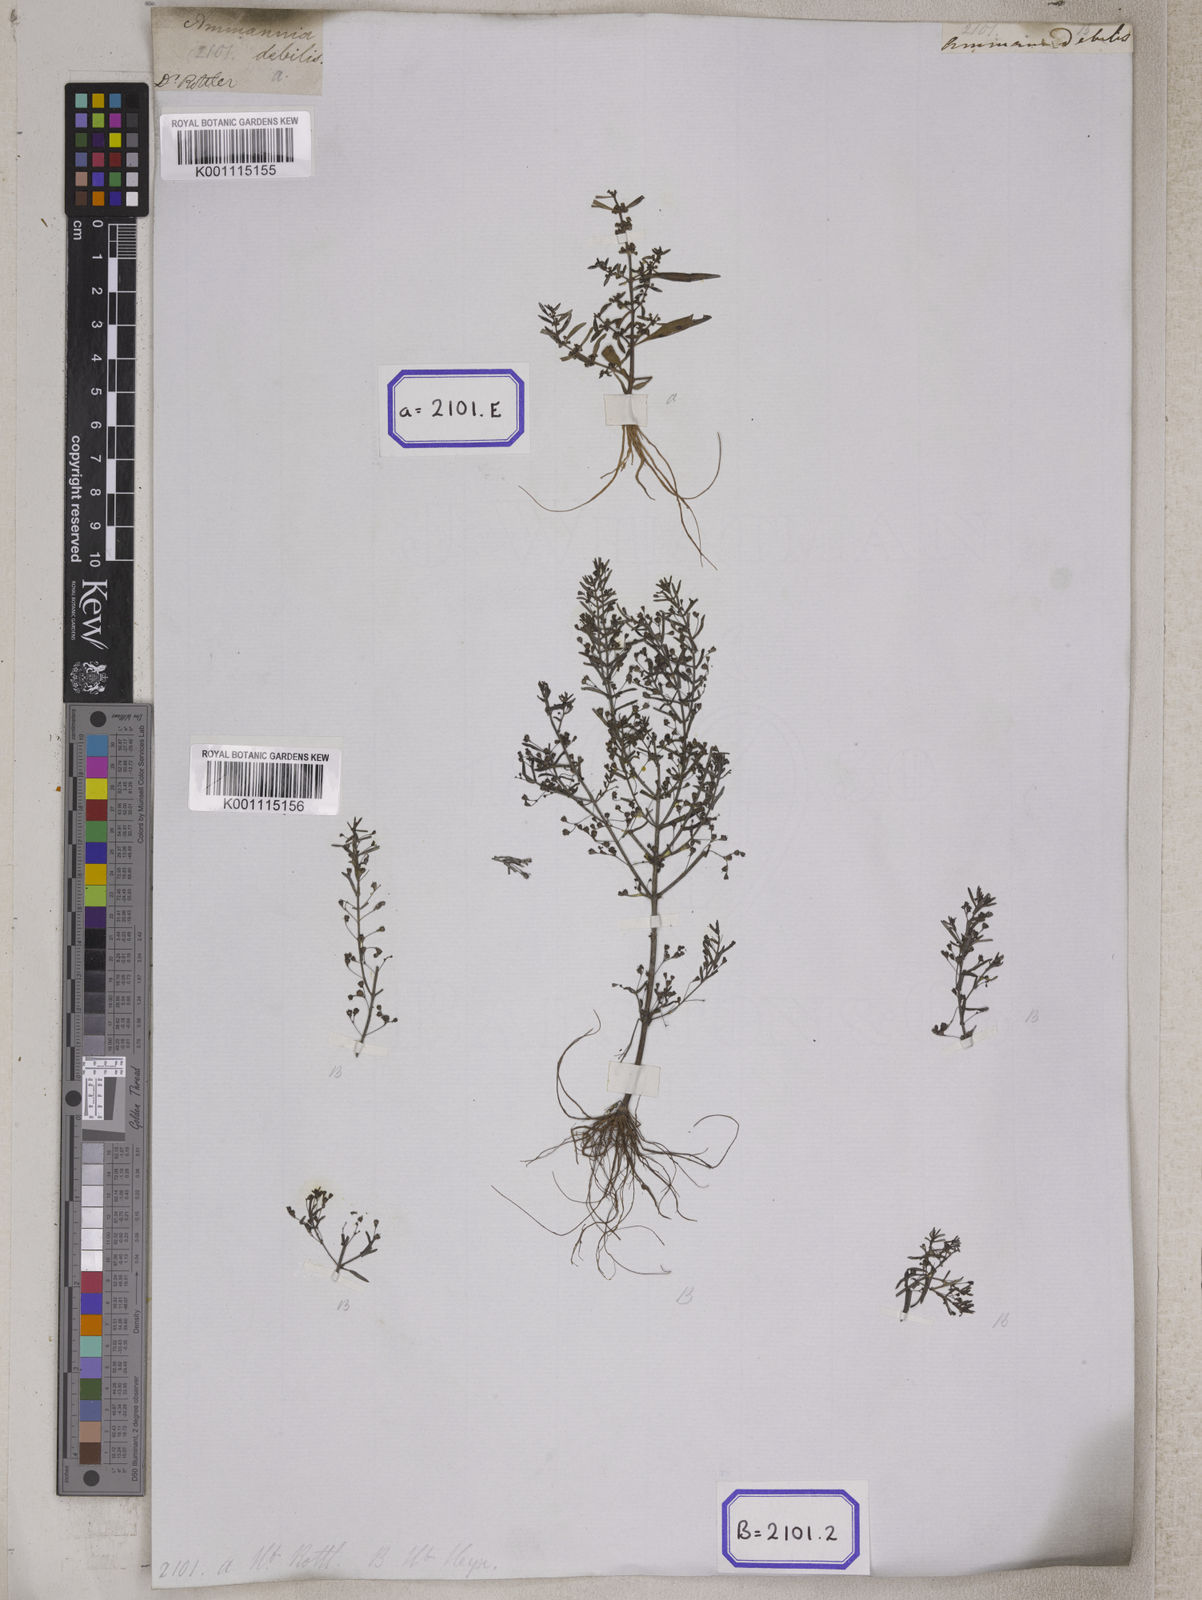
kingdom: Plantae
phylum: Tracheophyta
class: Magnoliopsida
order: Myrtales
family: Lythraceae
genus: Ammannia
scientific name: Ammannia auriculata
